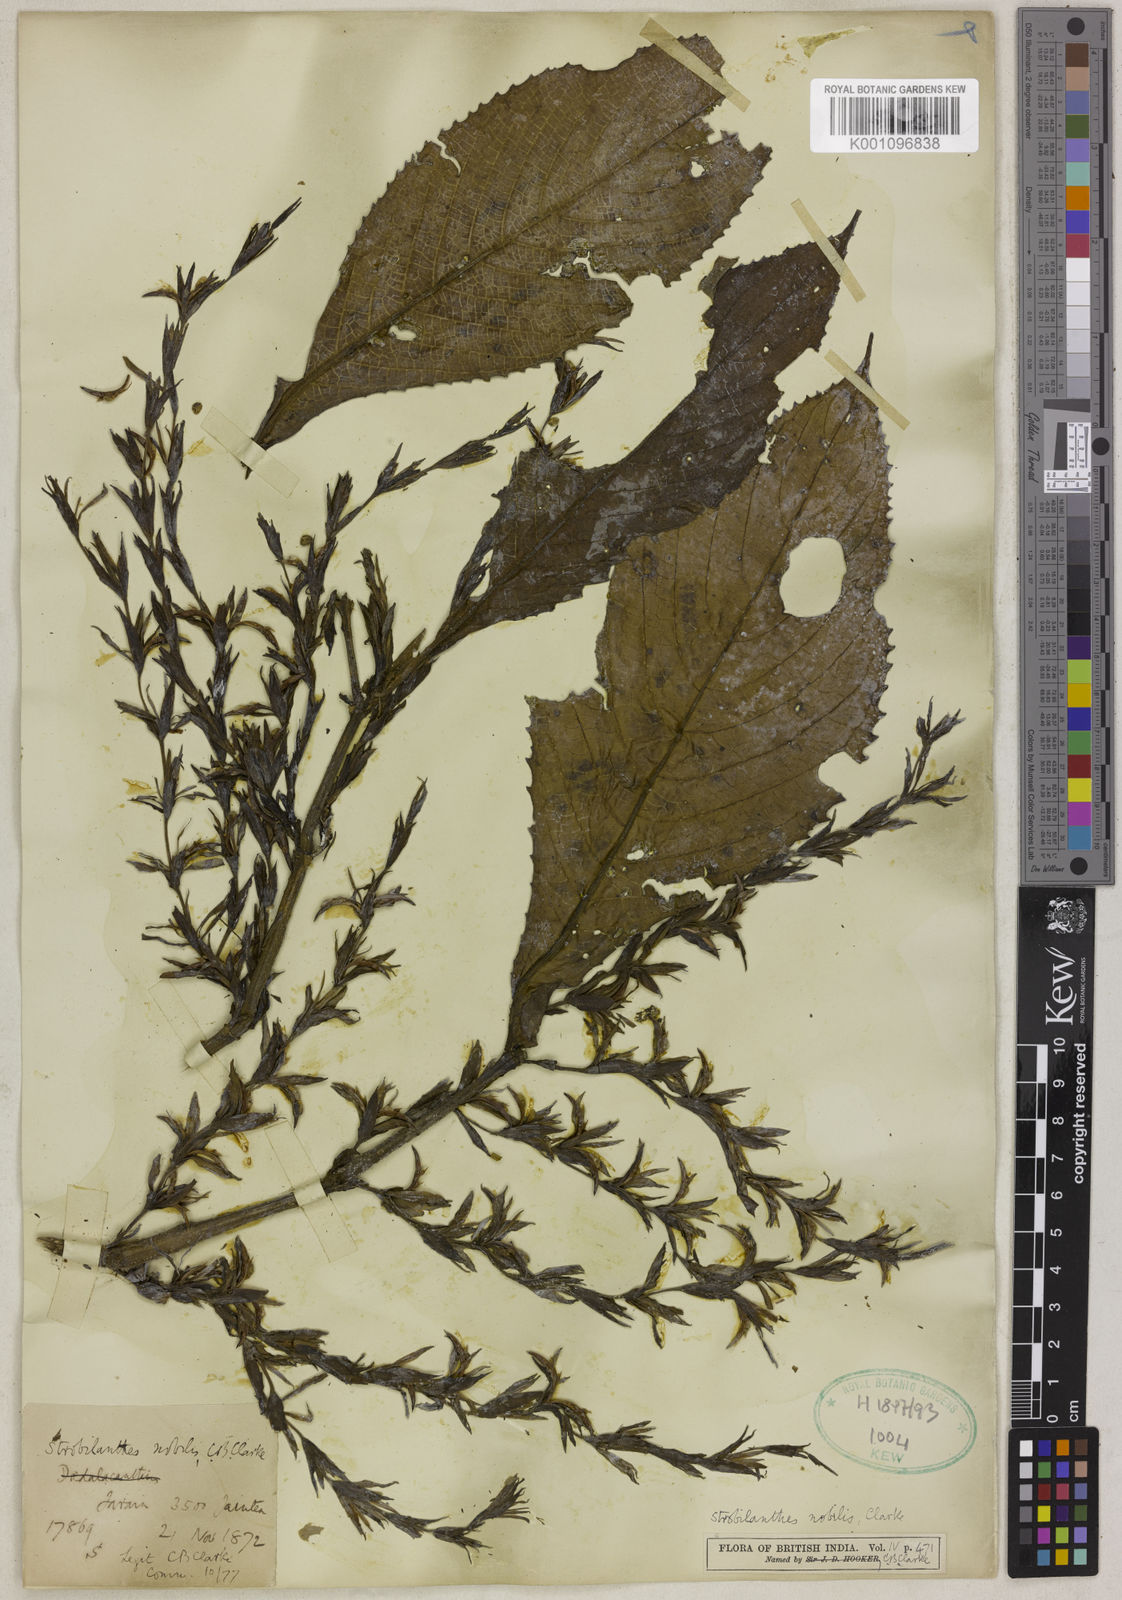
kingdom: Plantae
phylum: Tracheophyta
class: Magnoliopsida
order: Lamiales
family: Acanthaceae
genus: Strobilanthes
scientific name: Strobilanthes nobilis
